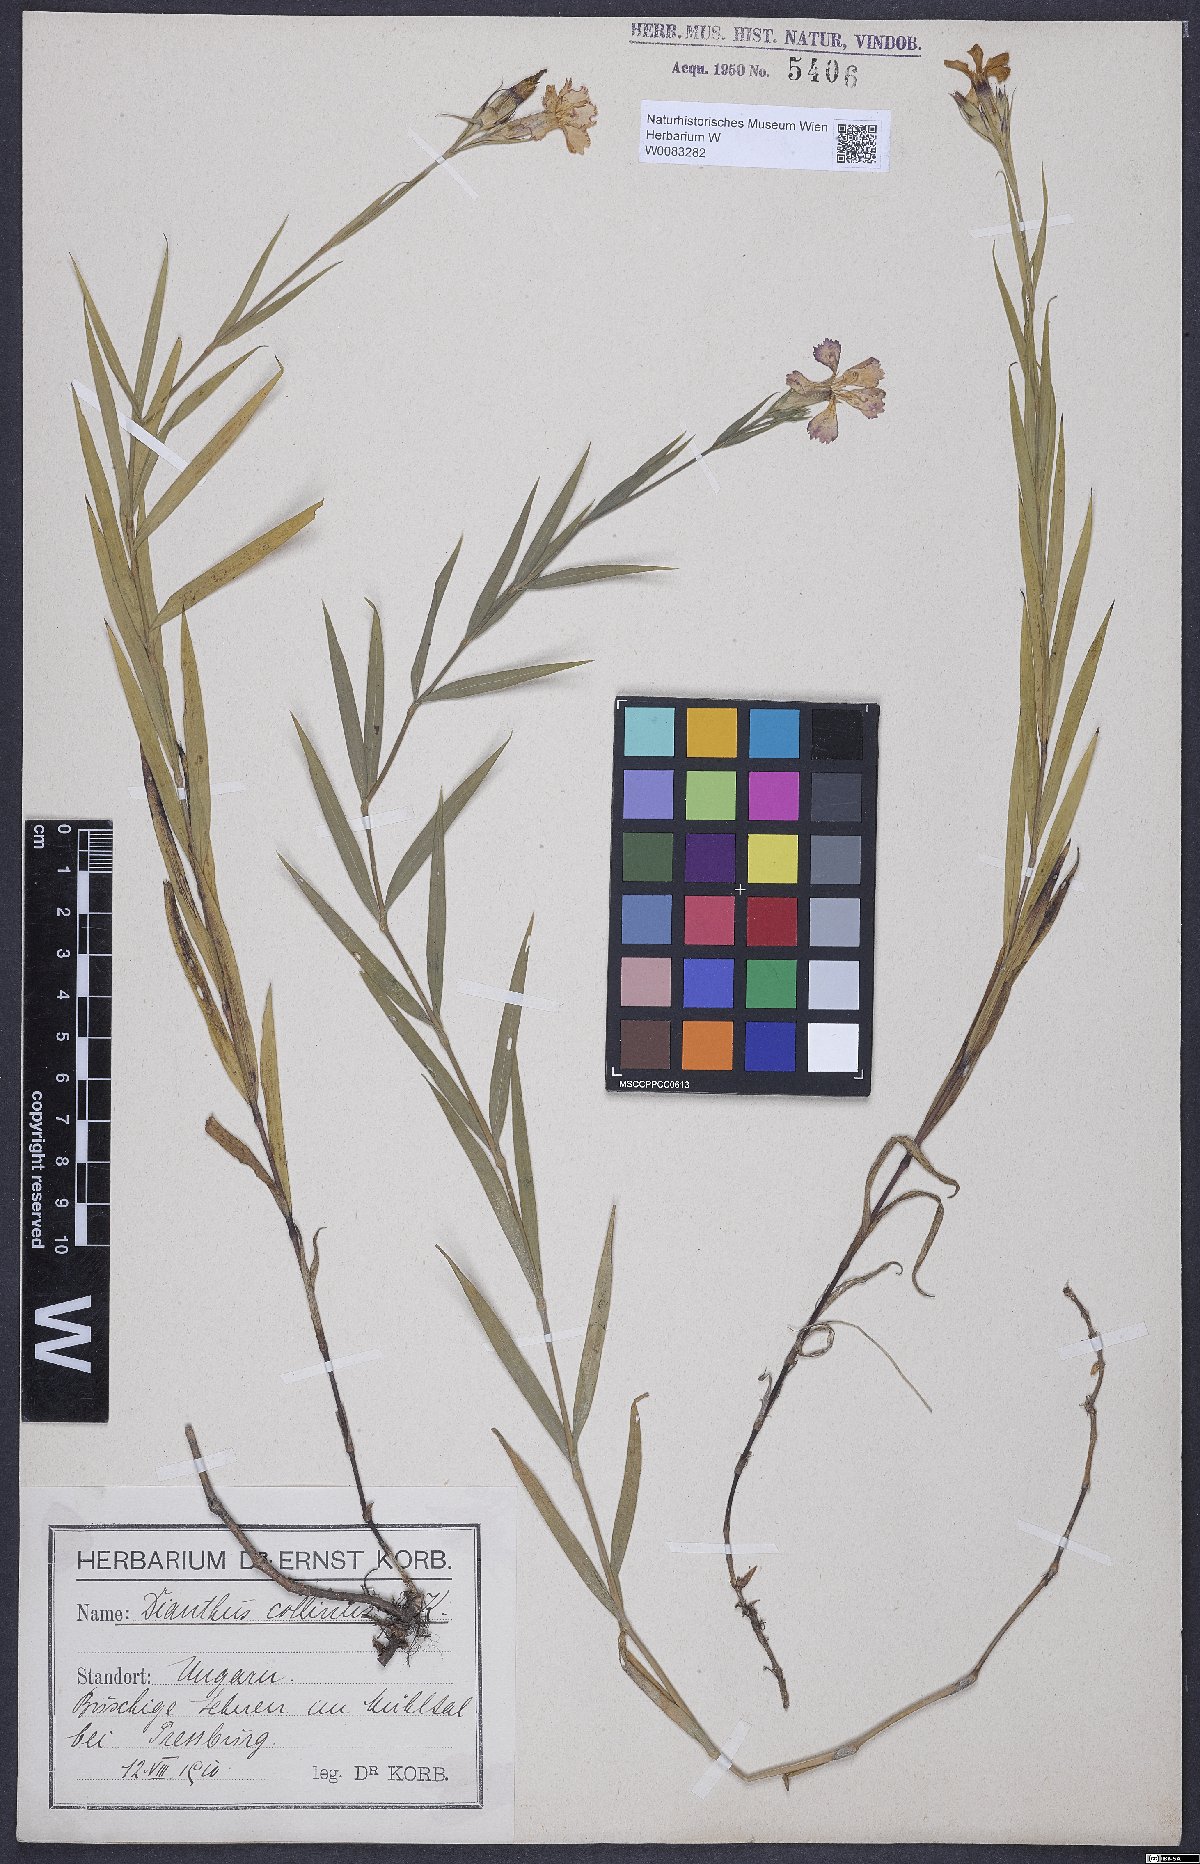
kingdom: Plantae
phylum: Tracheophyta
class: Magnoliopsida
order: Caryophyllales
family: Caryophyllaceae
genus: Dianthus
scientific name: Dianthus collinus
